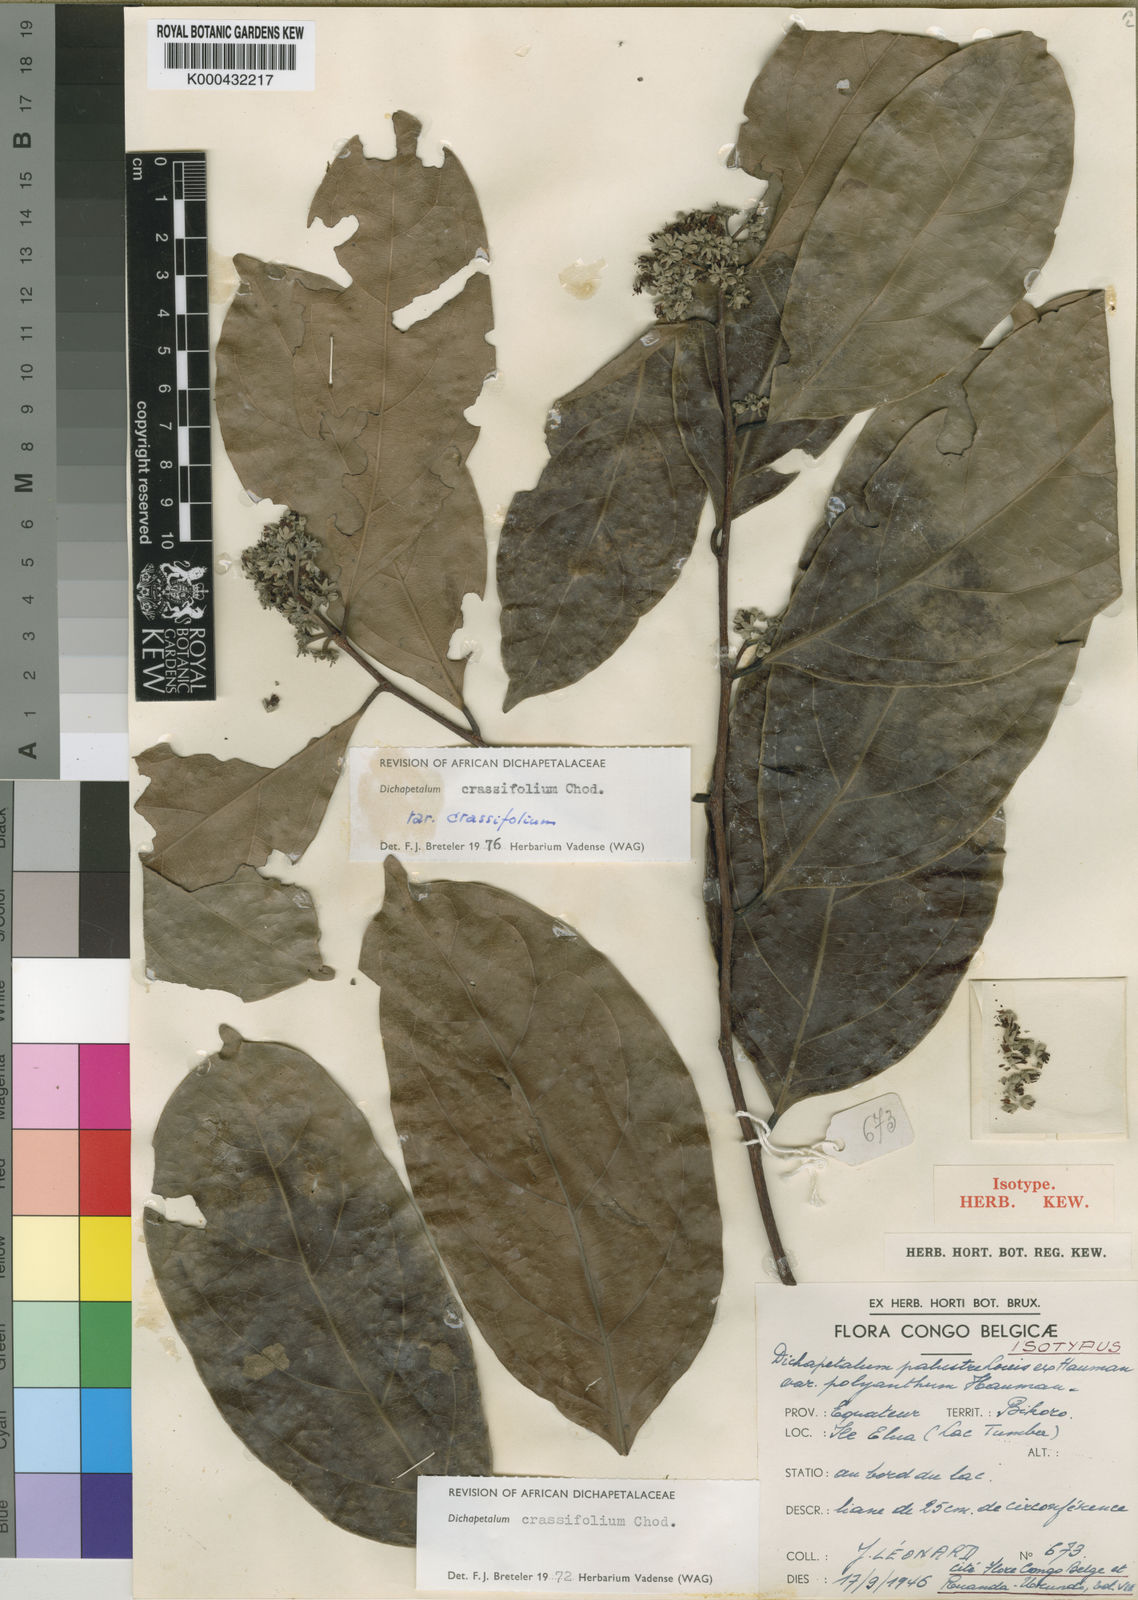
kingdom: Plantae
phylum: Tracheophyta
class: Magnoliopsida
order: Malpighiales
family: Dichapetalaceae
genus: Dichapetalum
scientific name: Dichapetalum crassifolium
